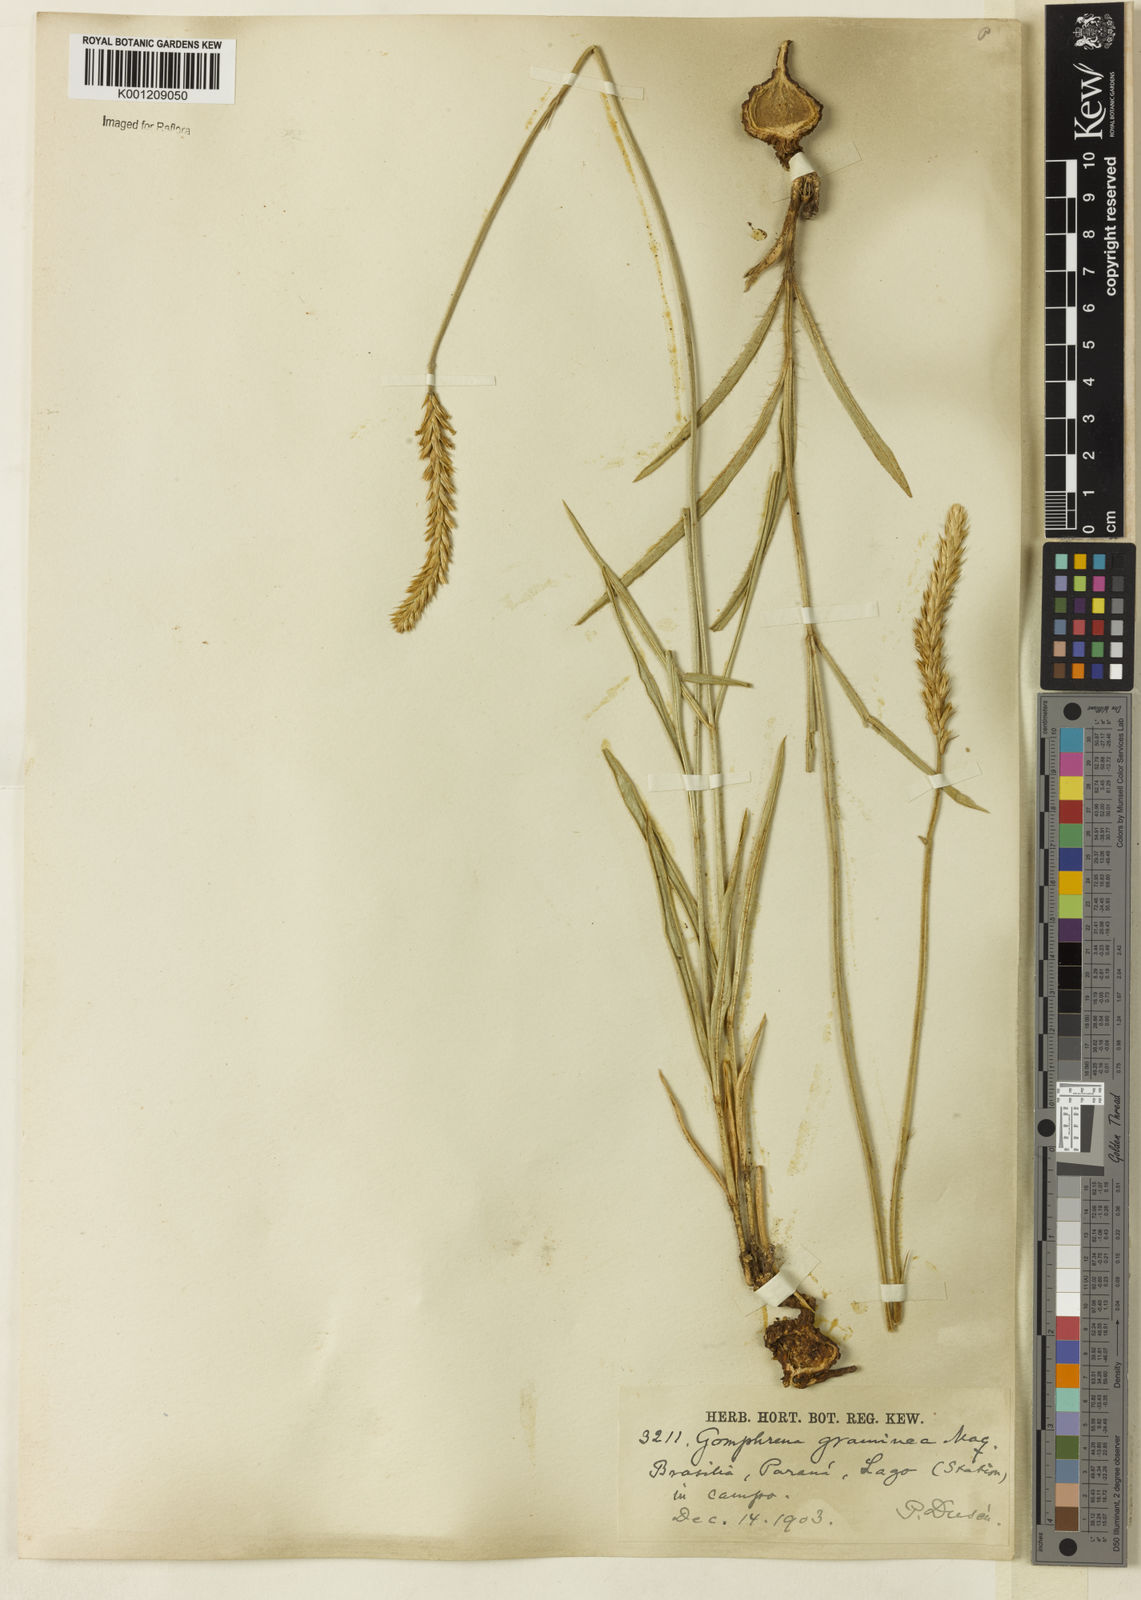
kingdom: Plantae
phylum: Tracheophyta
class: Magnoliopsida
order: Caryophyllales
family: Amaranthaceae
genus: Gomphrena
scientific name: Gomphrena graminea
